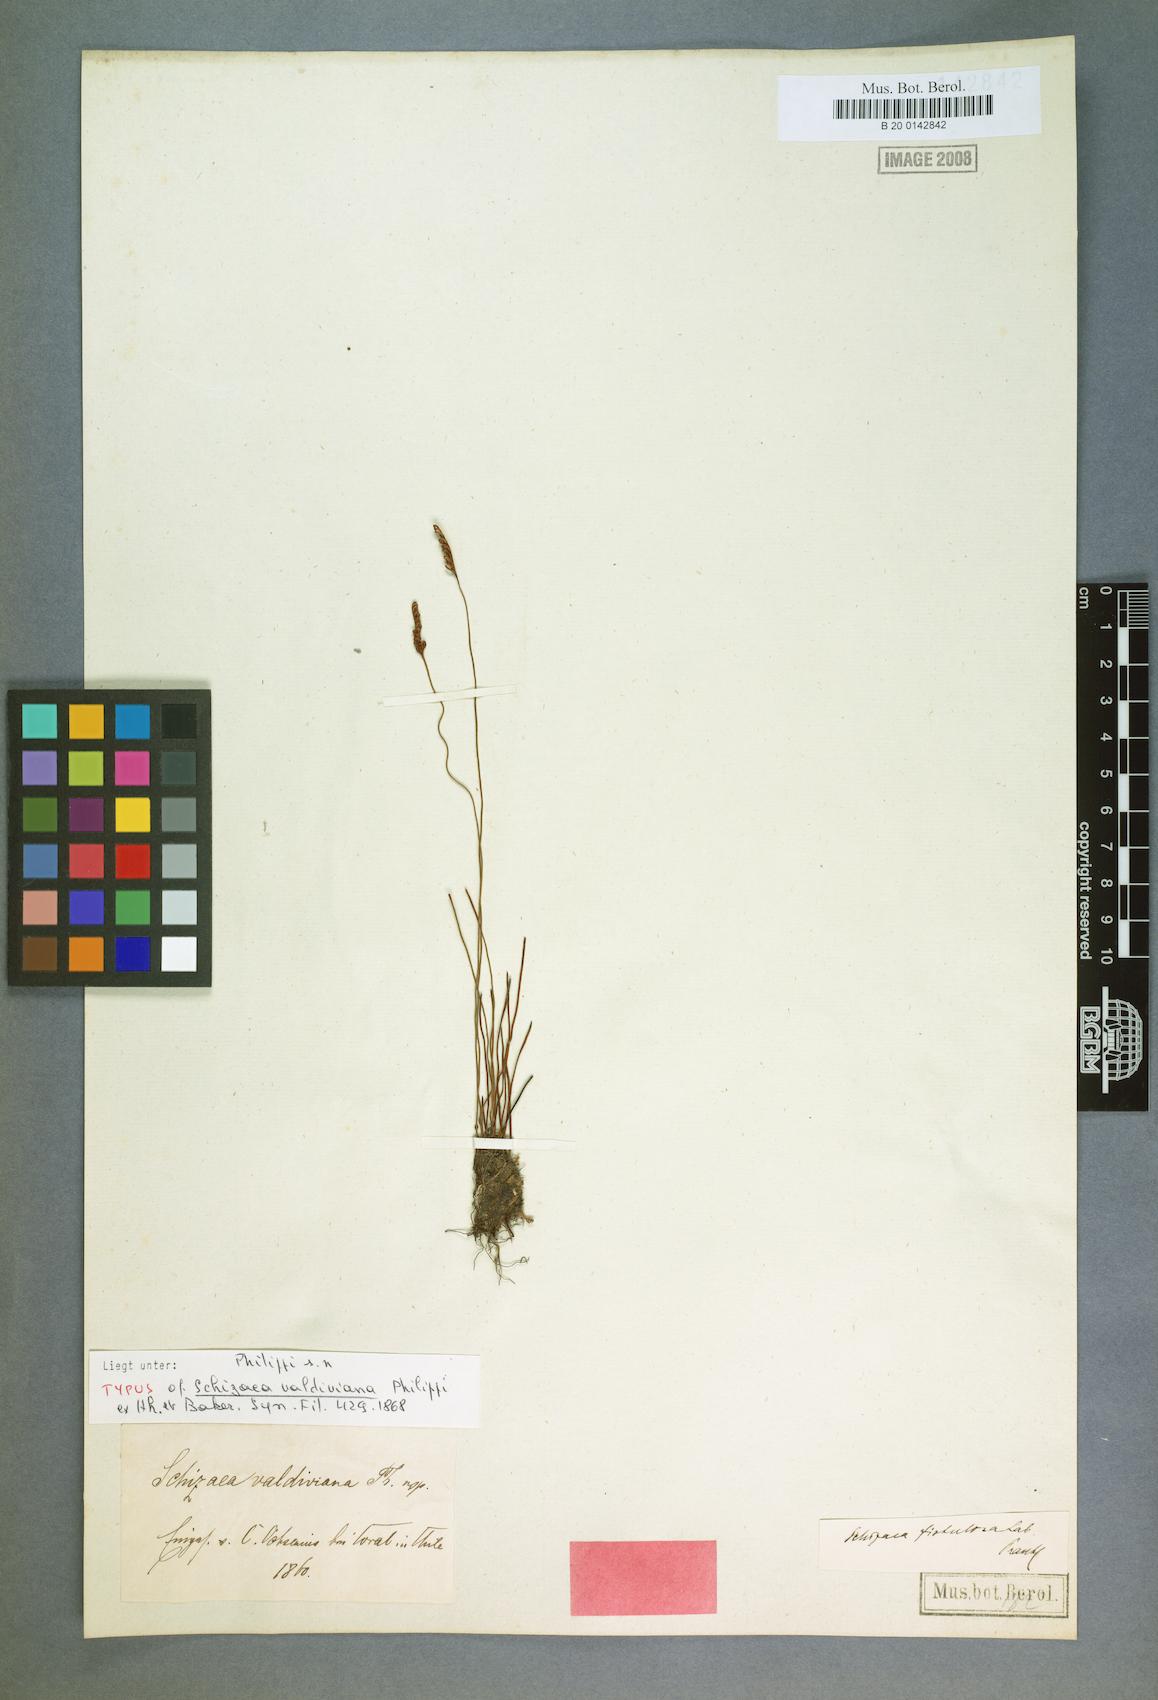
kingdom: Plantae
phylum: Tracheophyta
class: Polypodiopsida
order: Schizaeales
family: Schizaeaceae
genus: Microschizaea
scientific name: Microschizaea fistulosa
